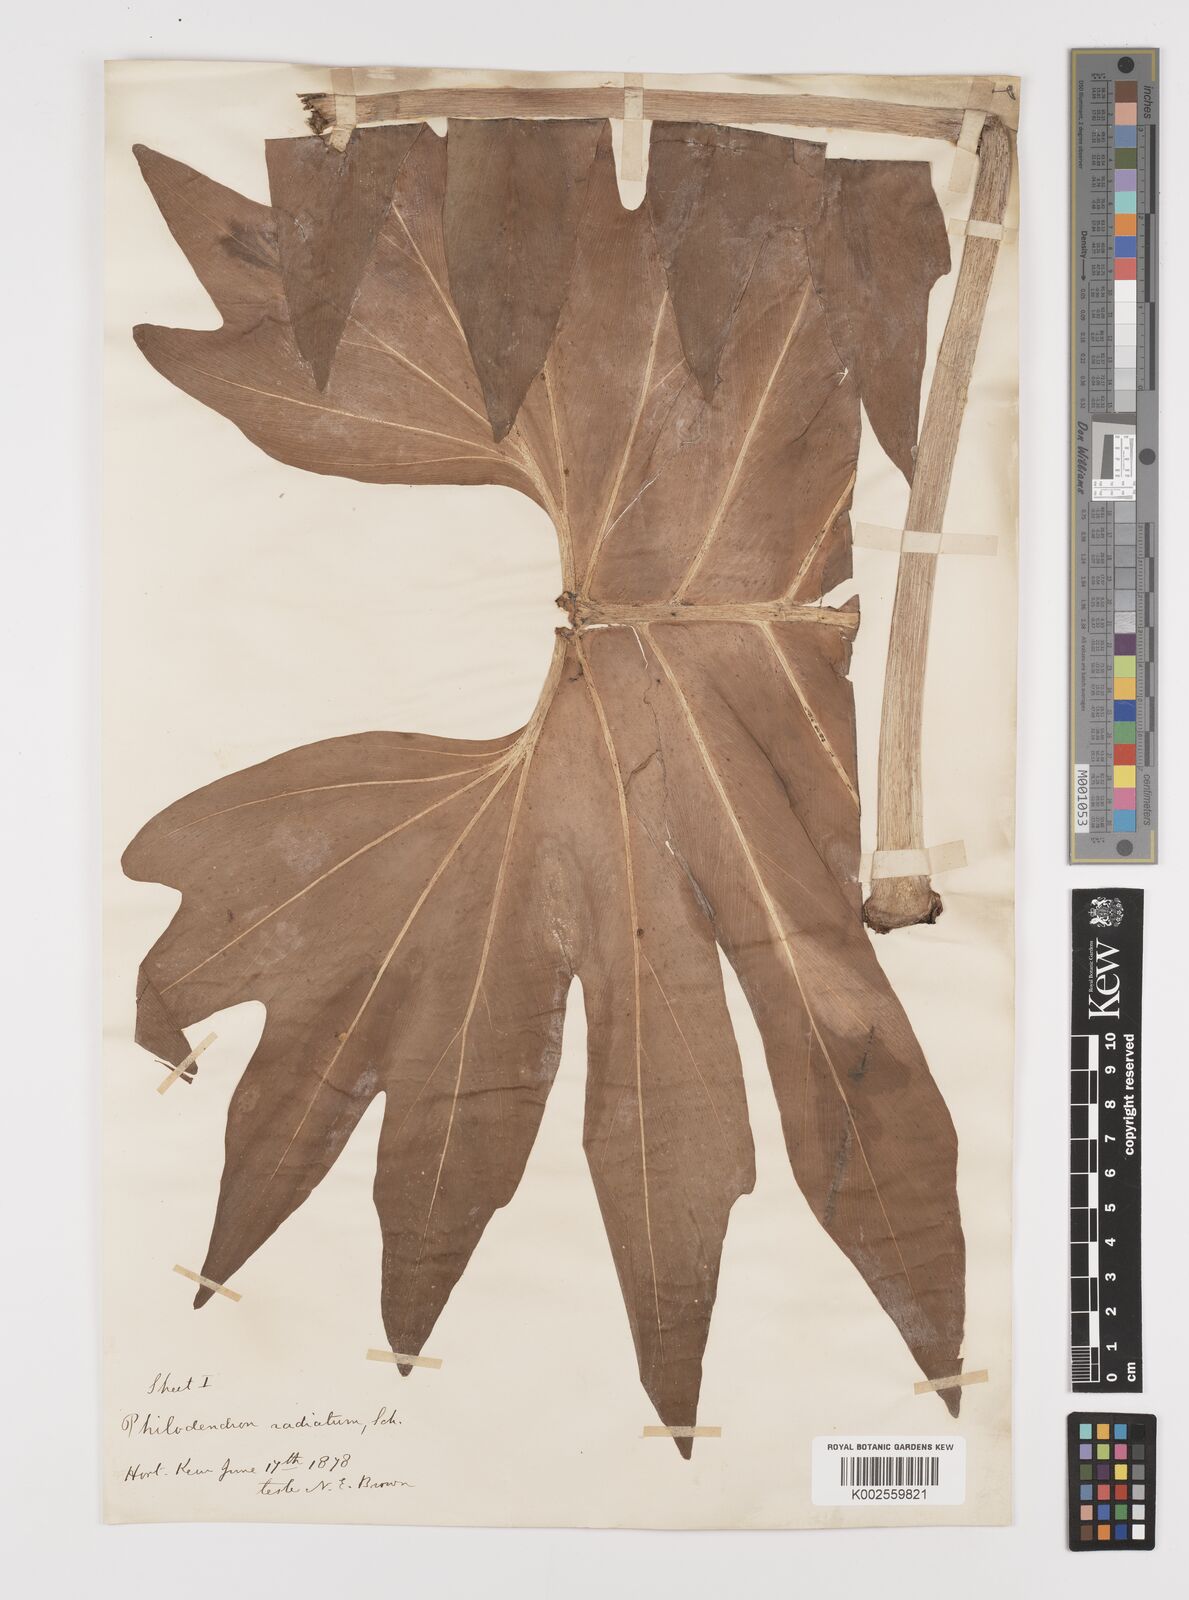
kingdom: Plantae
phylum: Tracheophyta
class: Liliopsida
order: Alismatales
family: Araceae
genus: Philodendron
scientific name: Philodendron radiatum
